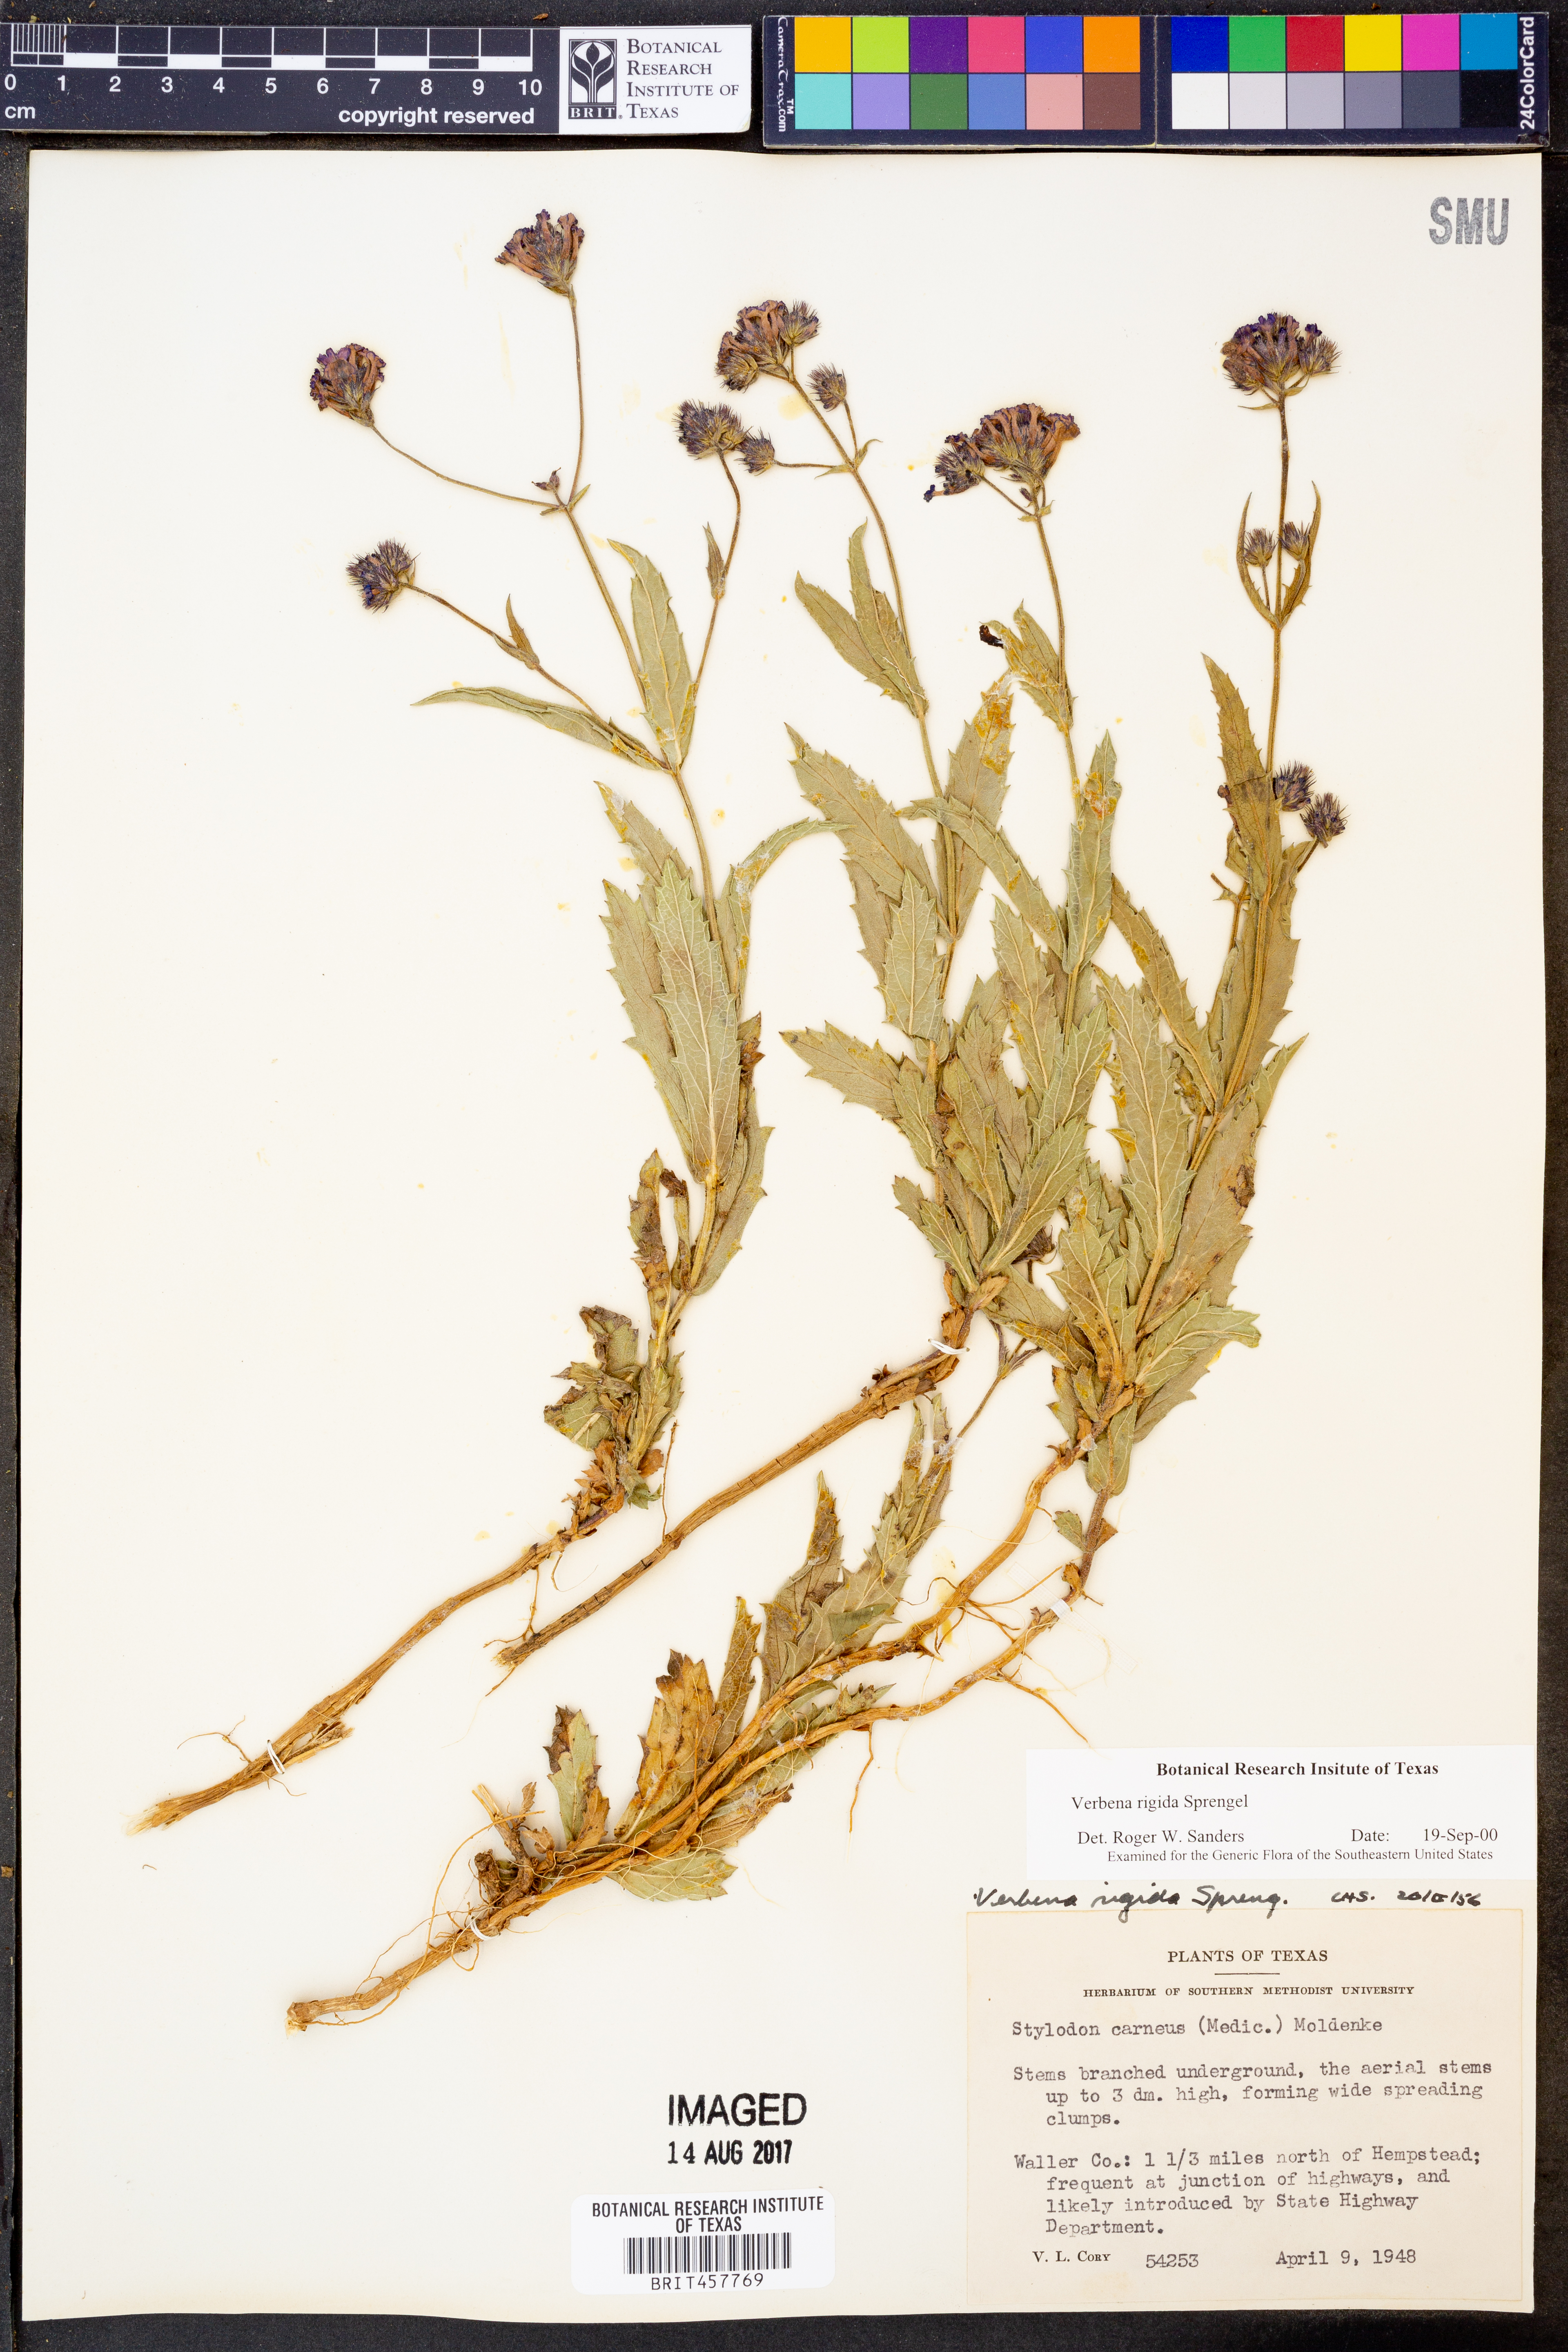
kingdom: Plantae
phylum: Tracheophyta
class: Magnoliopsida
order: Lamiales
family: Verbenaceae
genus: Verbena
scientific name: Verbena rigida
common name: Slender vervain
